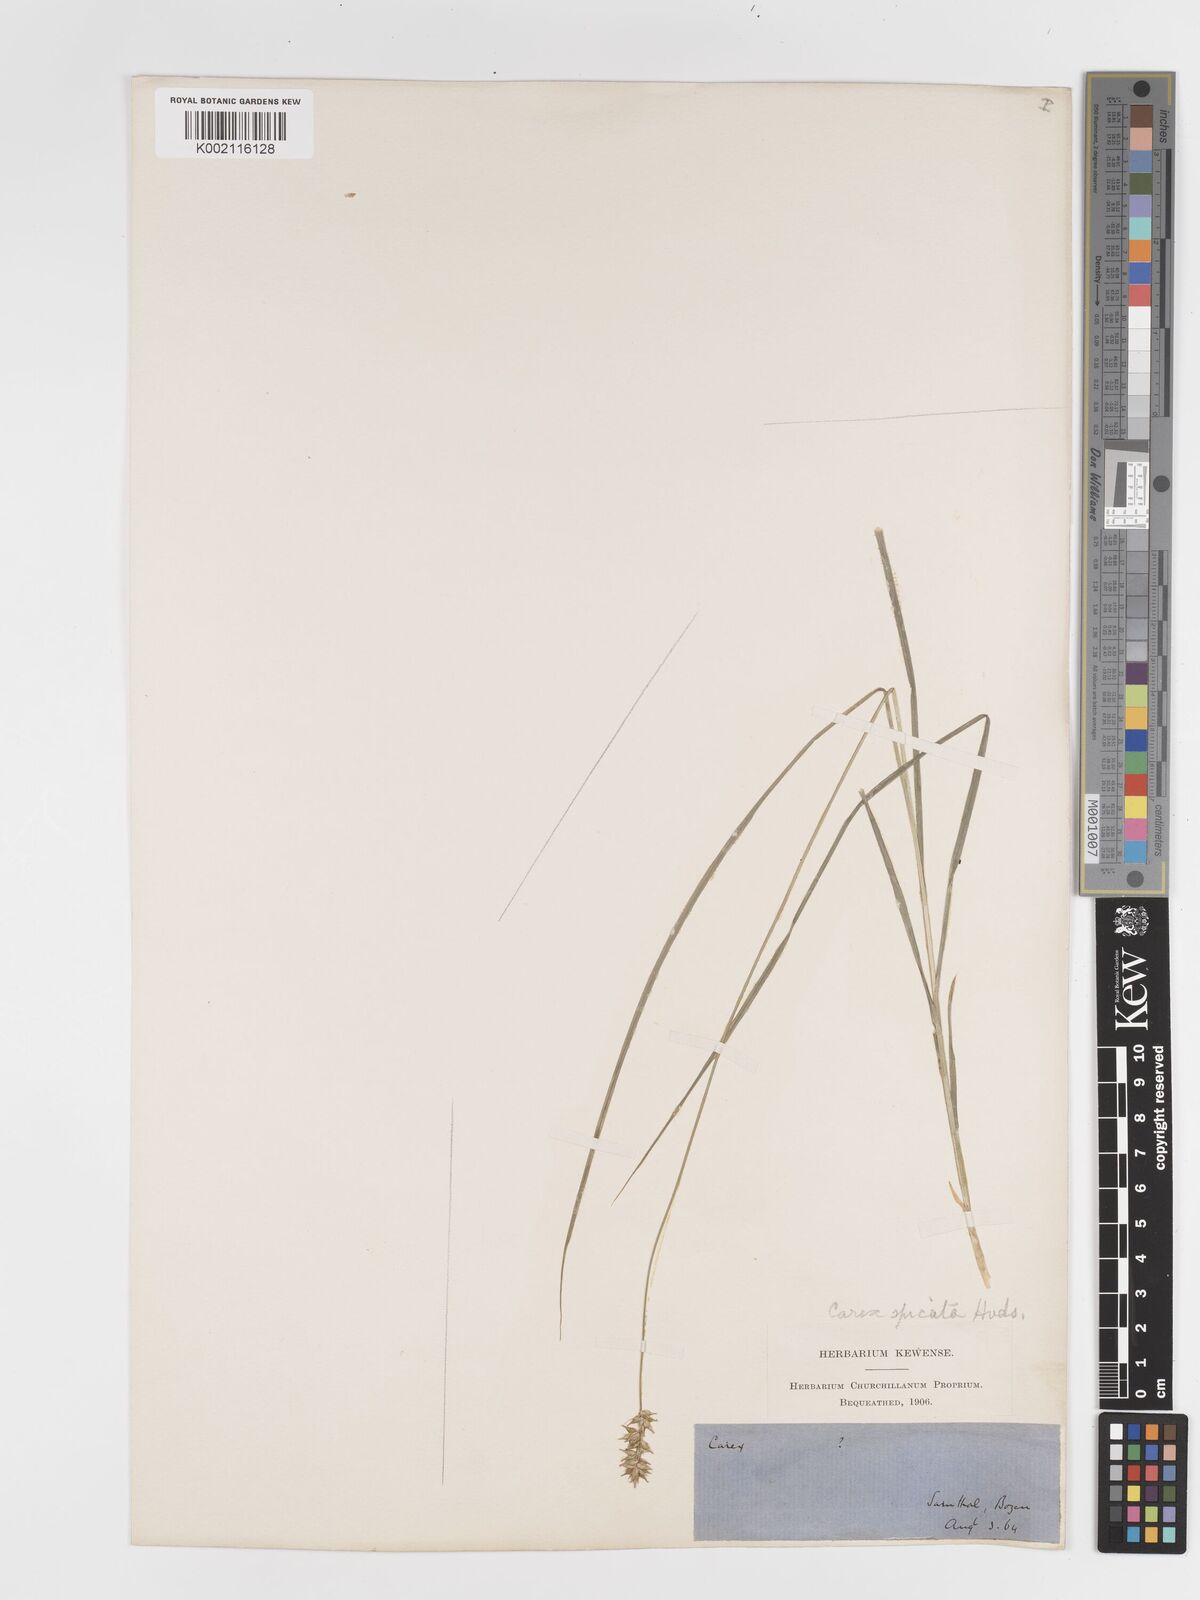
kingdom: Plantae
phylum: Tracheophyta
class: Liliopsida
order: Poales
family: Cyperaceae
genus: Carex
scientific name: Carex spicata
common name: Spiked sedge
